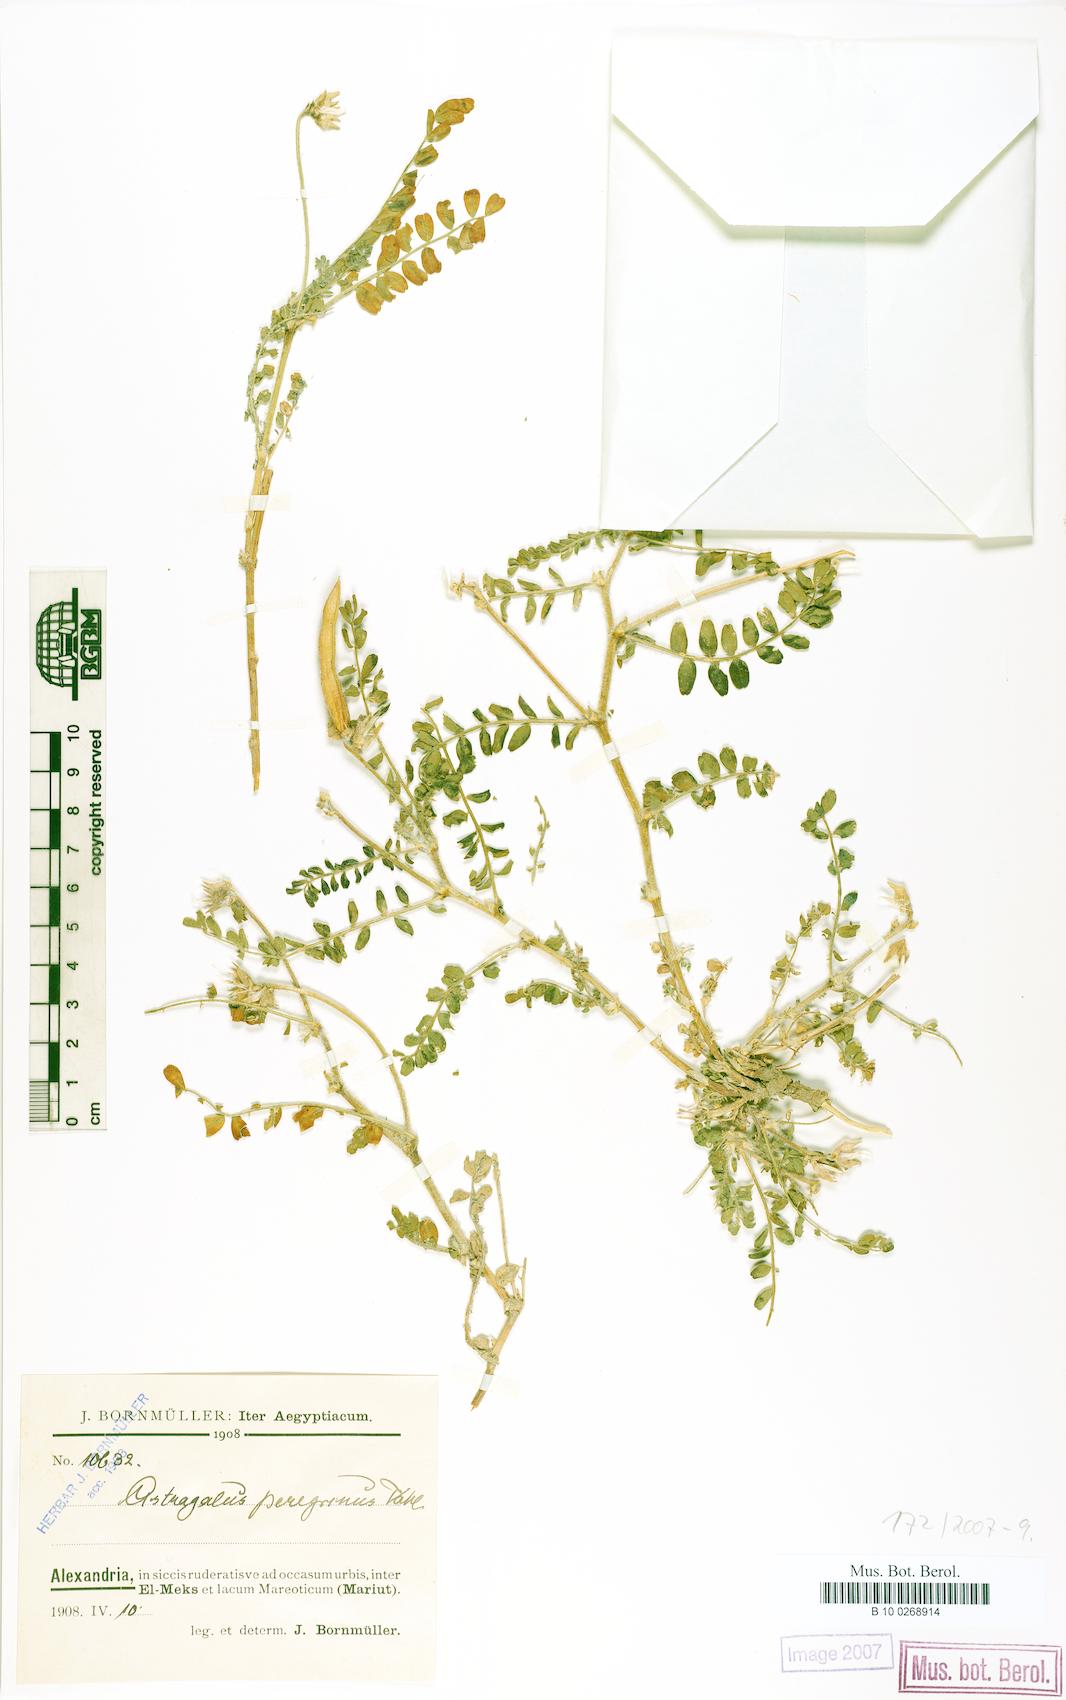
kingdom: Plantae
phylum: Tracheophyta
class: Magnoliopsida
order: Fabales
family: Fabaceae
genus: Astragalus
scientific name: Astragalus peregrinus
